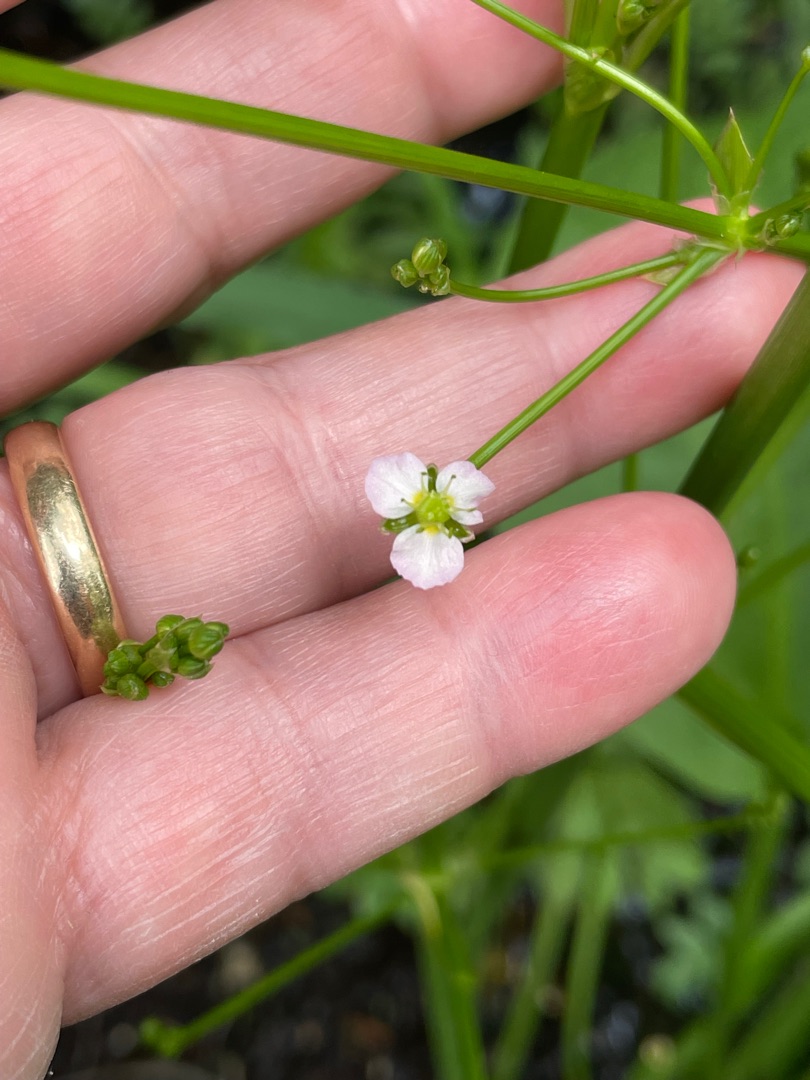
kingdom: Plantae
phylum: Tracheophyta
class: Liliopsida
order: Alismatales
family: Alismataceae
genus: Alisma
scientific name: Alisma plantago-aquatica
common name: Vejbred-skeblad
